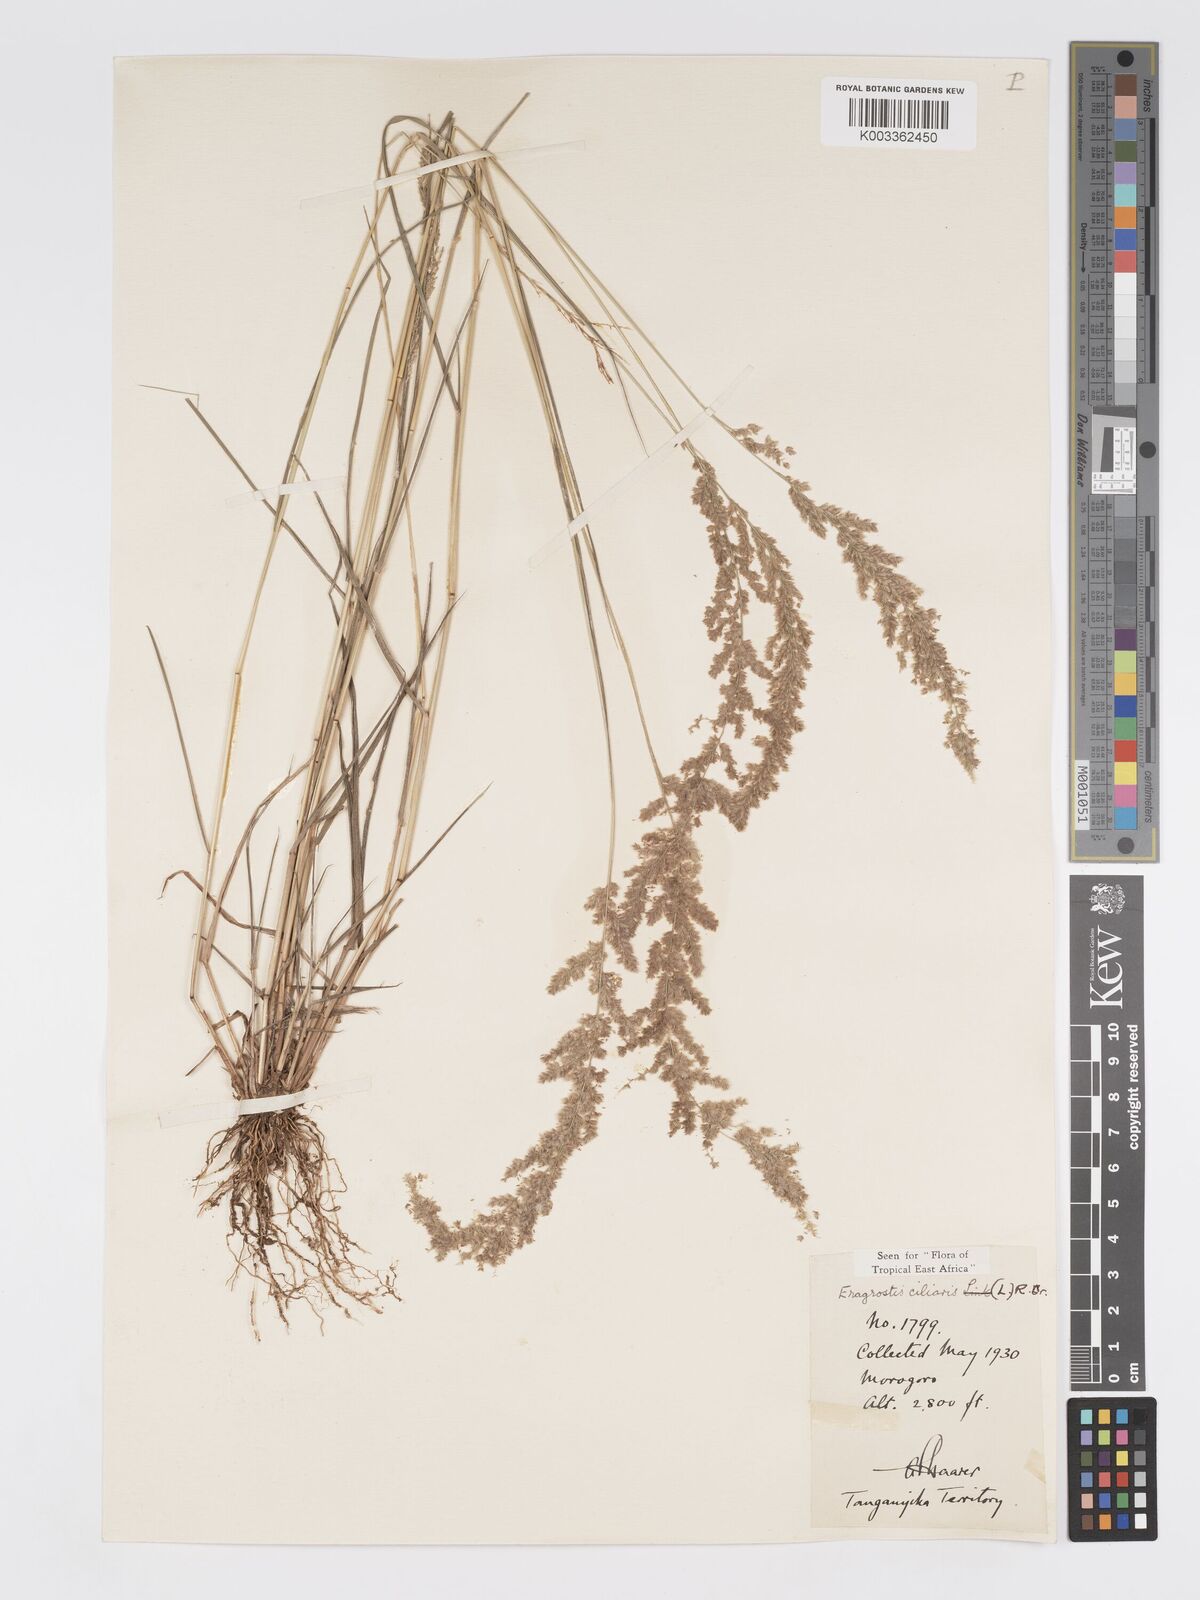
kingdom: Plantae
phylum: Tracheophyta
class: Liliopsida
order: Poales
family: Poaceae
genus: Eragrostis
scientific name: Eragrostis ciliaris
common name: Gophertail lovegrass
